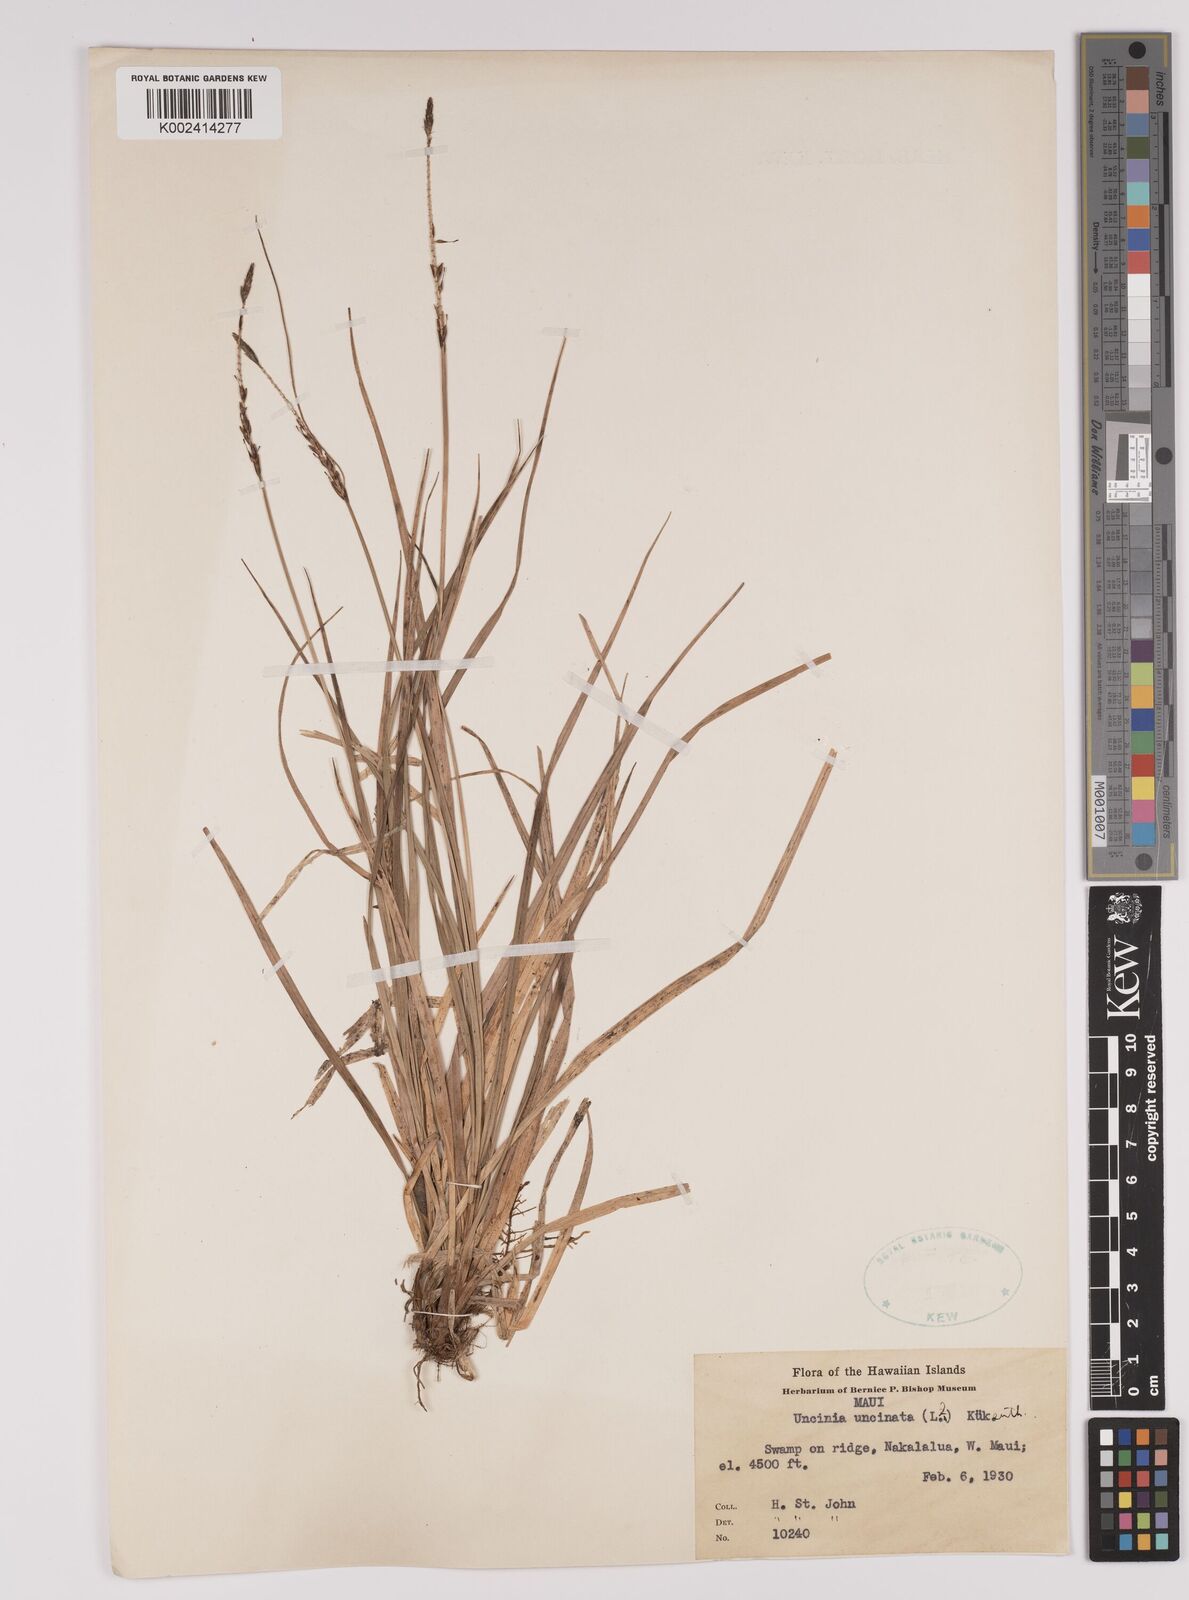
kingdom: Plantae
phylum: Tracheophyta
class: Liliopsida
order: Poales
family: Cyperaceae
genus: Carex
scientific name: Carex uncinata
